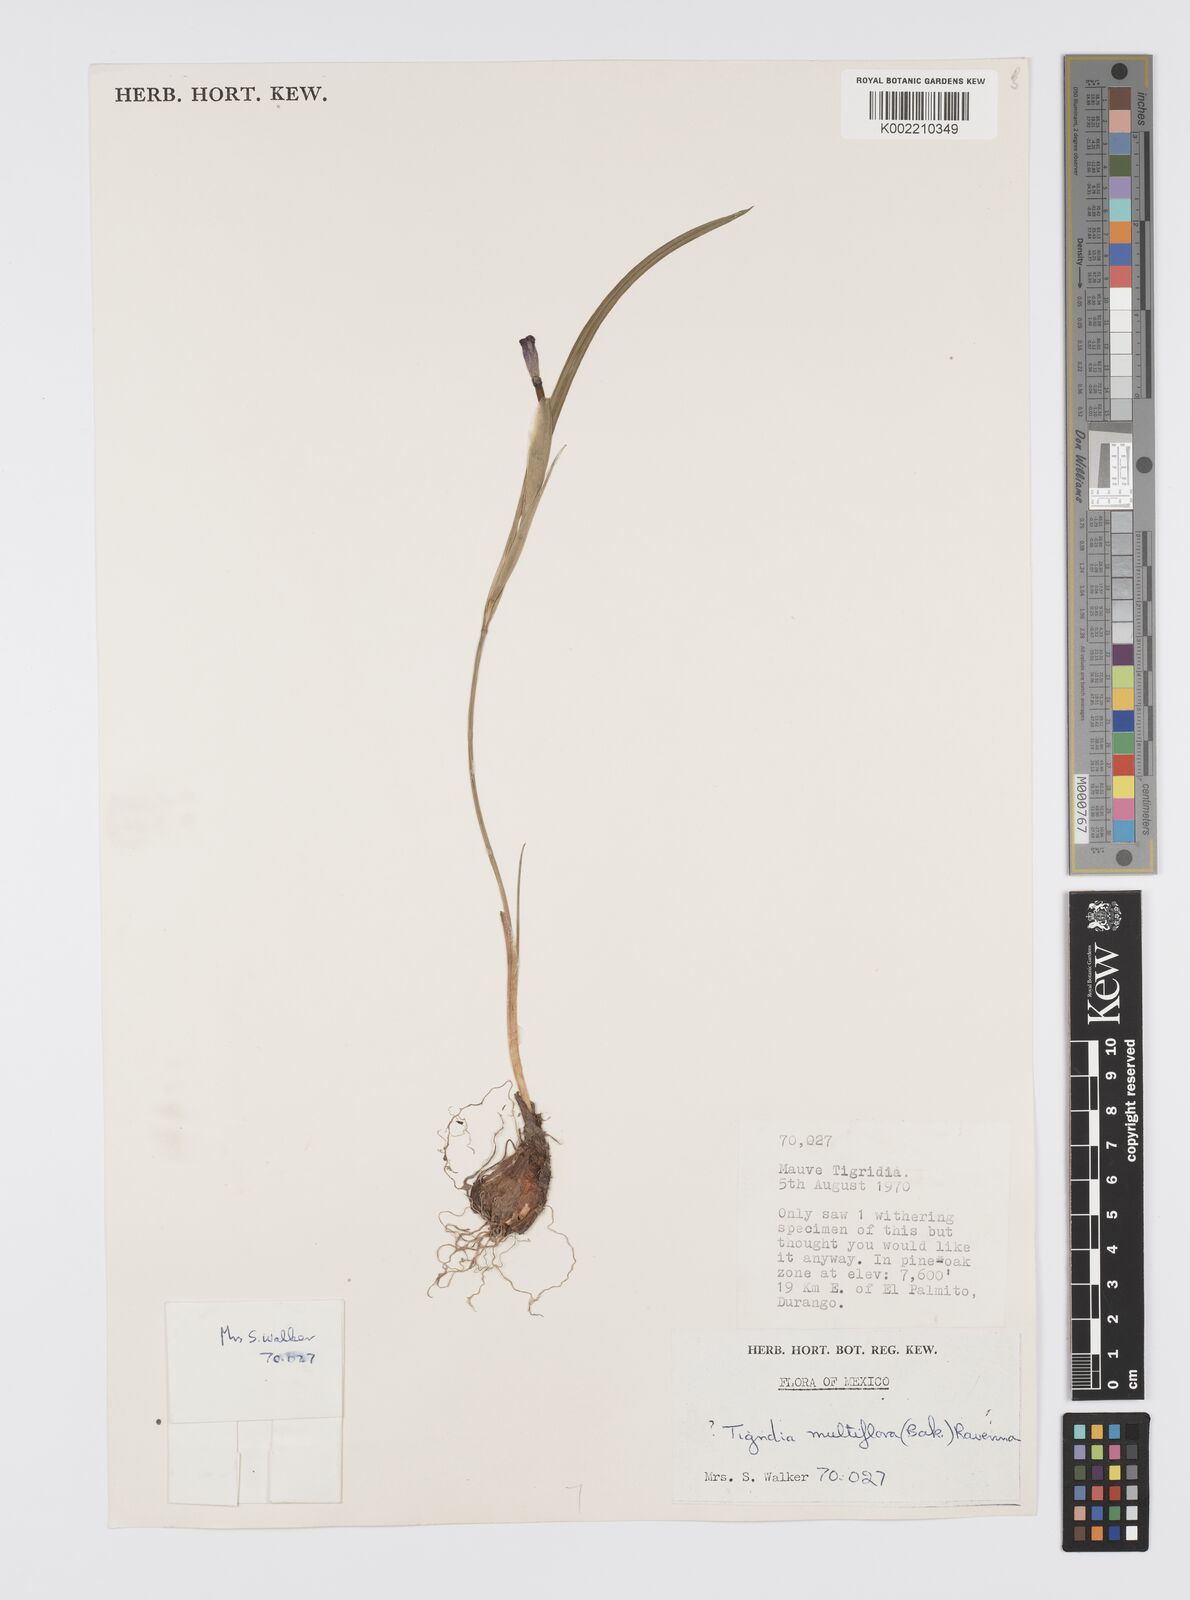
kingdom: Plantae
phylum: Tracheophyta
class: Liliopsida
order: Asparagales
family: Iridaceae
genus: Tigridia
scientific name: Tigridia multiflora
